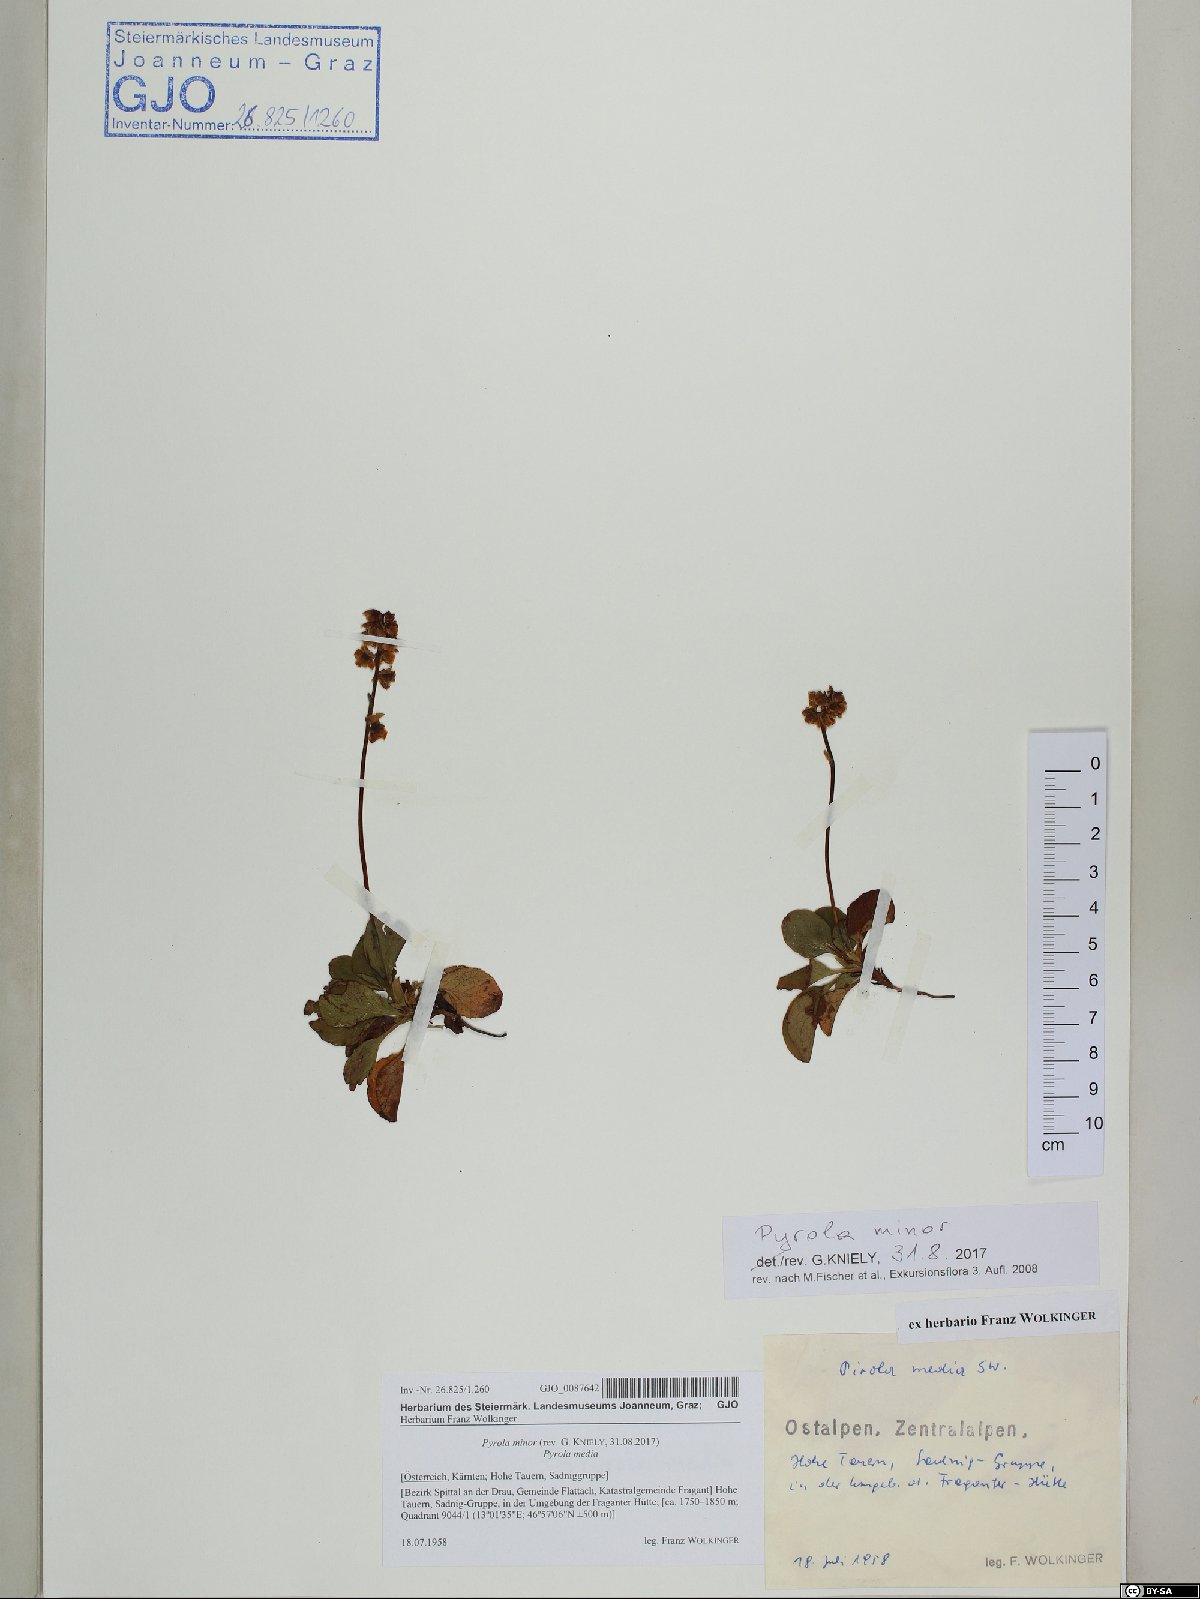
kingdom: Plantae
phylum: Tracheophyta
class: Magnoliopsida
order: Ericales
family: Ericaceae
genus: Pyrola
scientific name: Pyrola minor
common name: Common wintergreen
